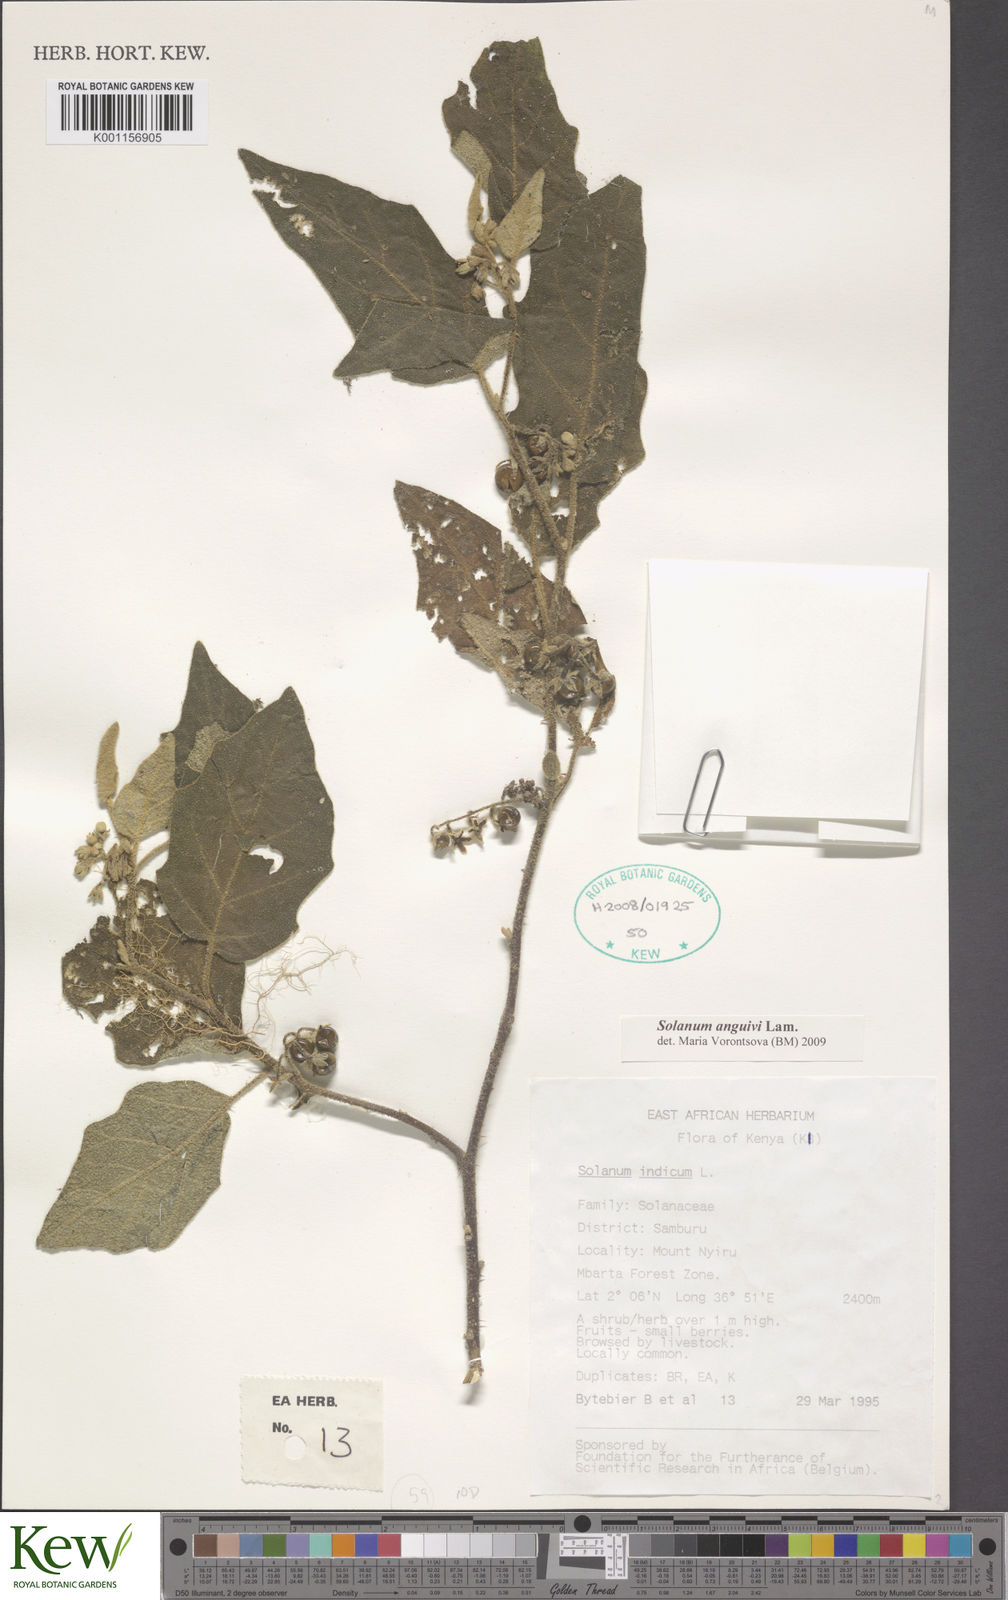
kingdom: Plantae
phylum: Tracheophyta
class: Magnoliopsida
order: Solanales
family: Solanaceae
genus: Solanum
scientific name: Solanum anguivi
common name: Forest bitterberry
